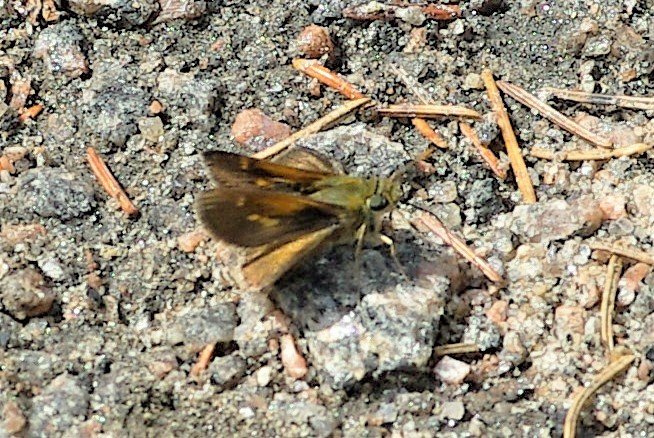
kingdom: Animalia
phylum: Arthropoda
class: Insecta
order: Lepidoptera
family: Hesperiidae
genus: Polites
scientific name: Polites themistocles
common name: Tawny-edged Skipper
